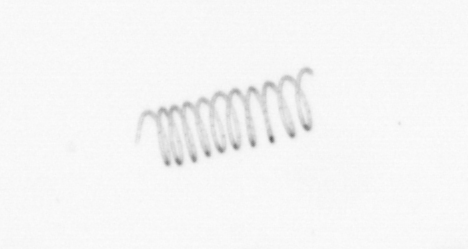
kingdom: Chromista
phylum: Ochrophyta
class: Bacillariophyceae
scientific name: Bacillariophyceae
